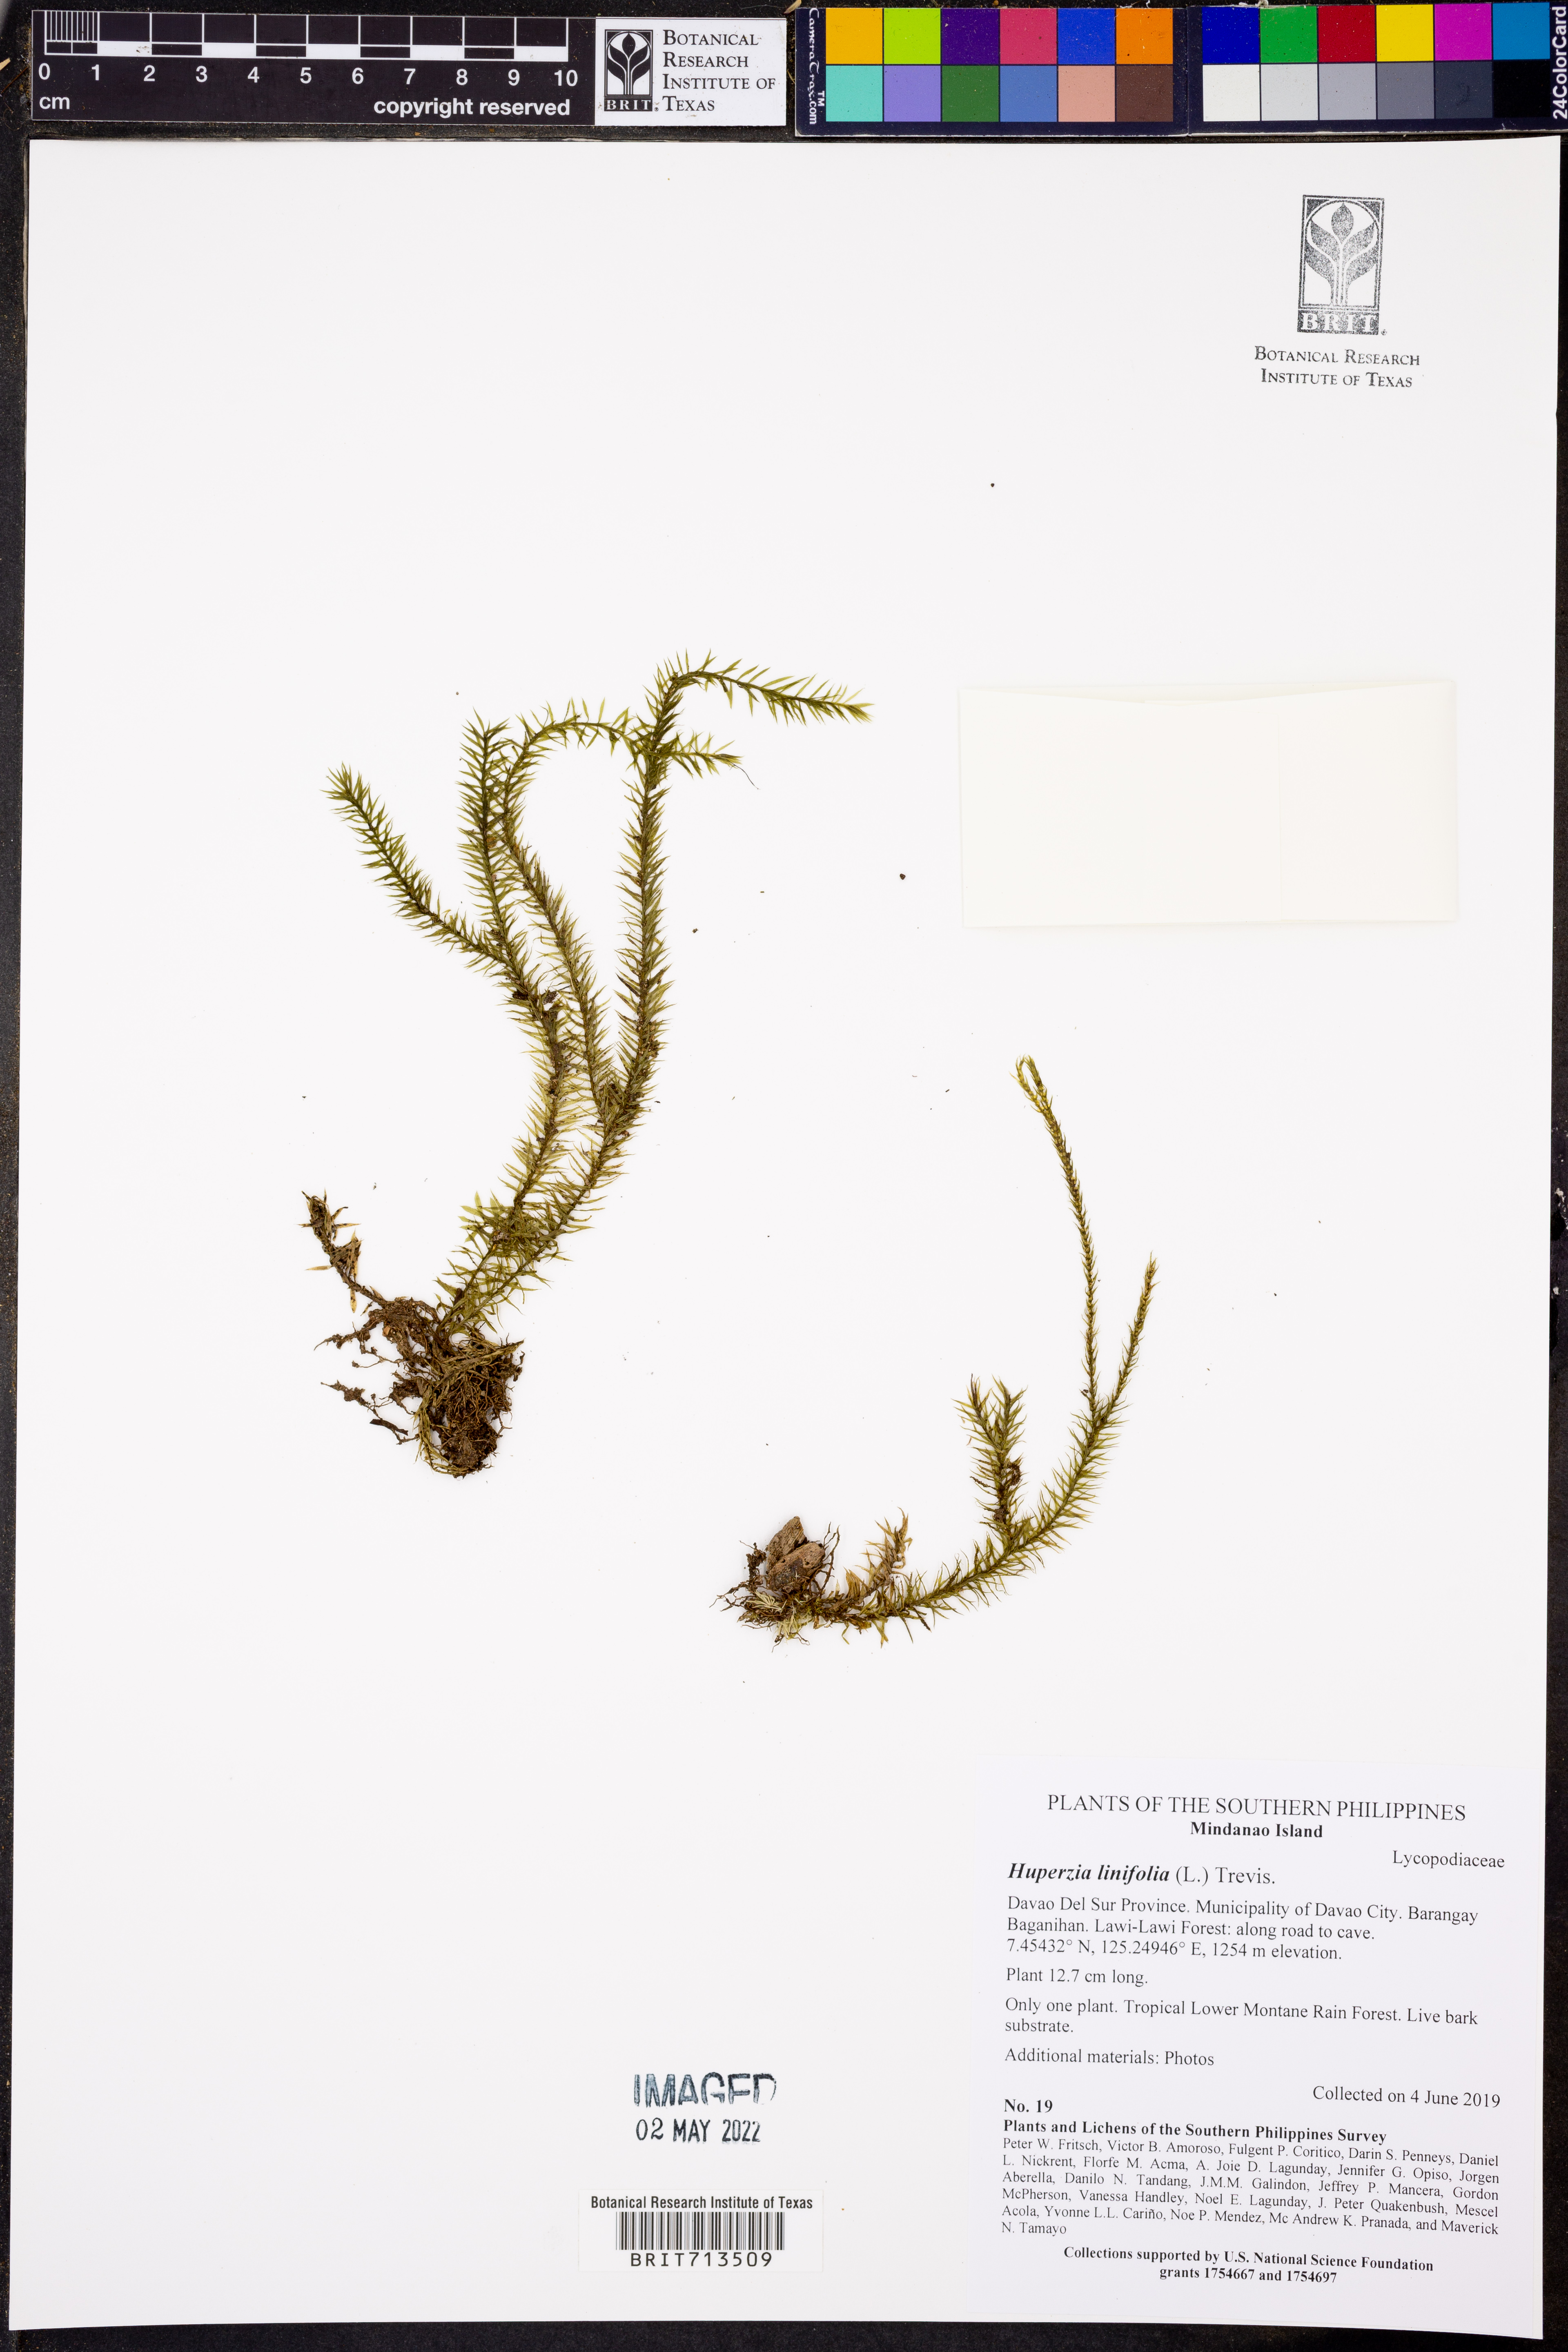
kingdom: Plantae
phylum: Tracheophyta
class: Lycopodiopsida
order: Lycopodiales
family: Lycopodiaceae
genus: Phlegmariurus
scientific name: Phlegmariurus linifolius
